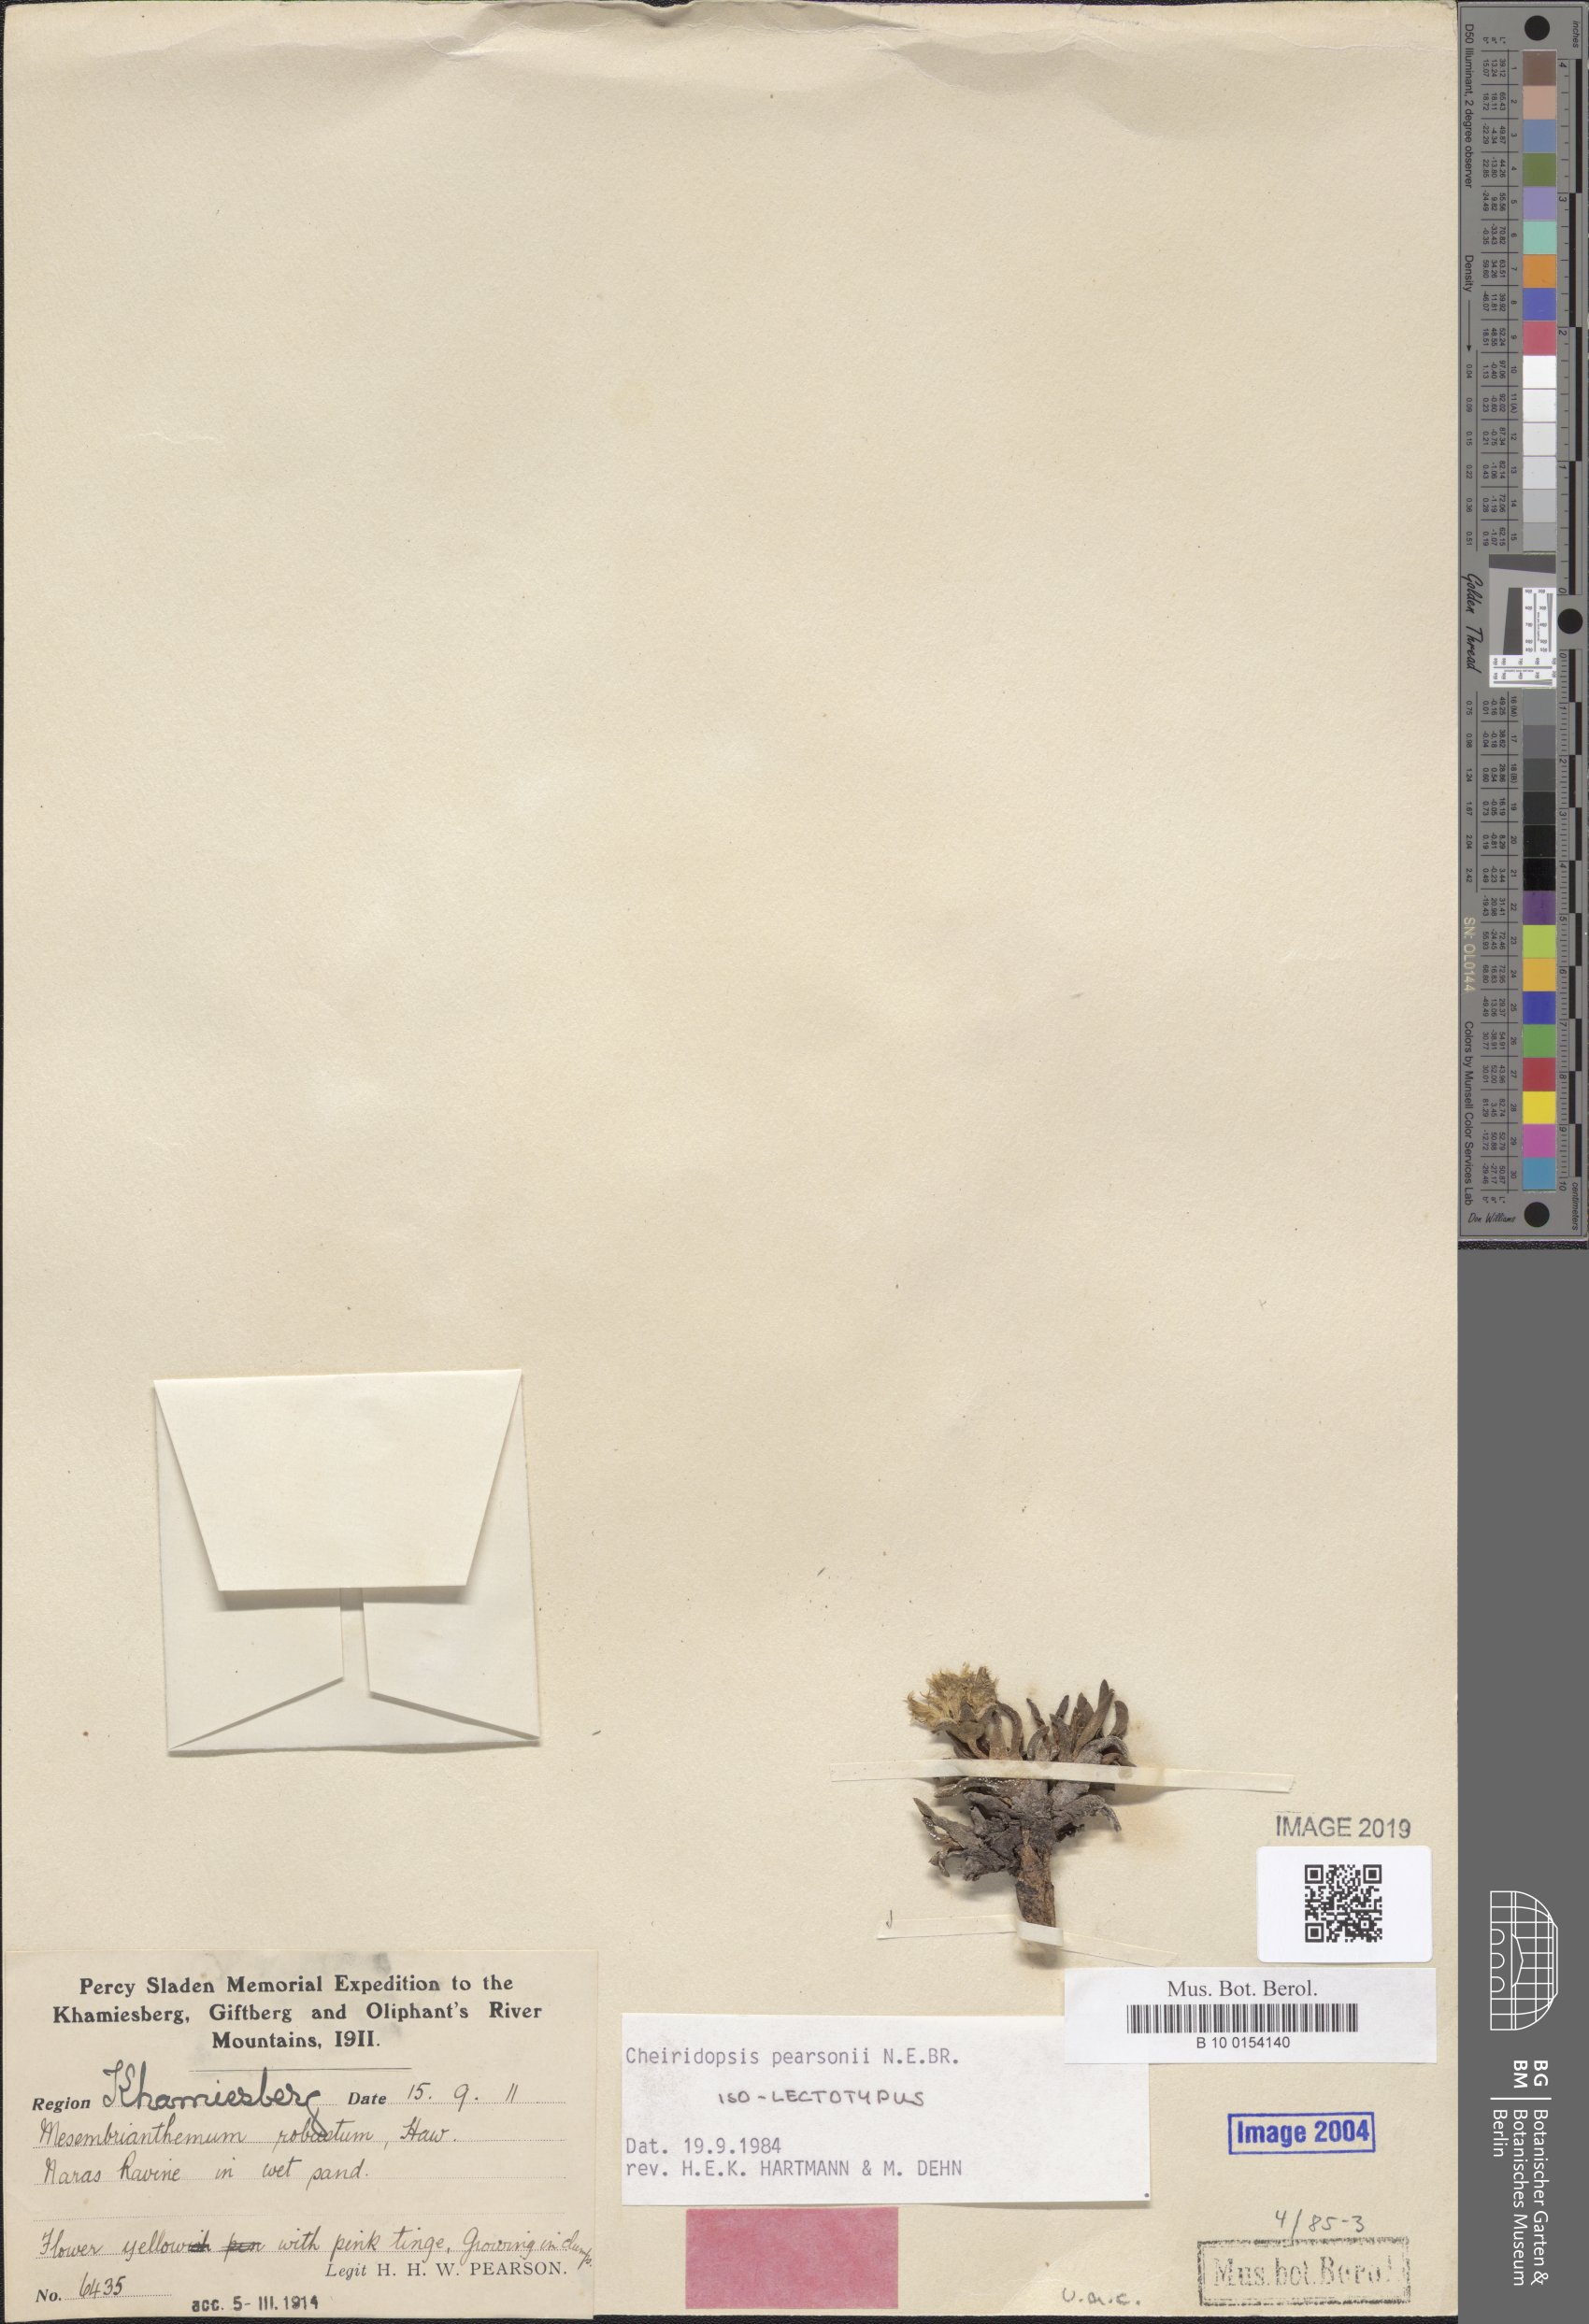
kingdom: Plantae
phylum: Tracheophyta
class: Magnoliopsida
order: Caryophyllales
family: Aizoaceae
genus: Cheiridopsis
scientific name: Cheiridopsis pearsonii
